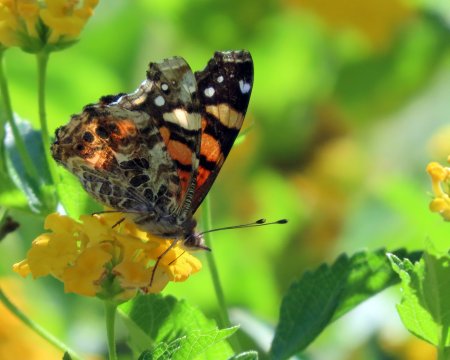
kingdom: Animalia
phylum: Arthropoda
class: Insecta
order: Lepidoptera
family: Nymphalidae
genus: Vanessa
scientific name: Vanessa annabella
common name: West Coast Lady
